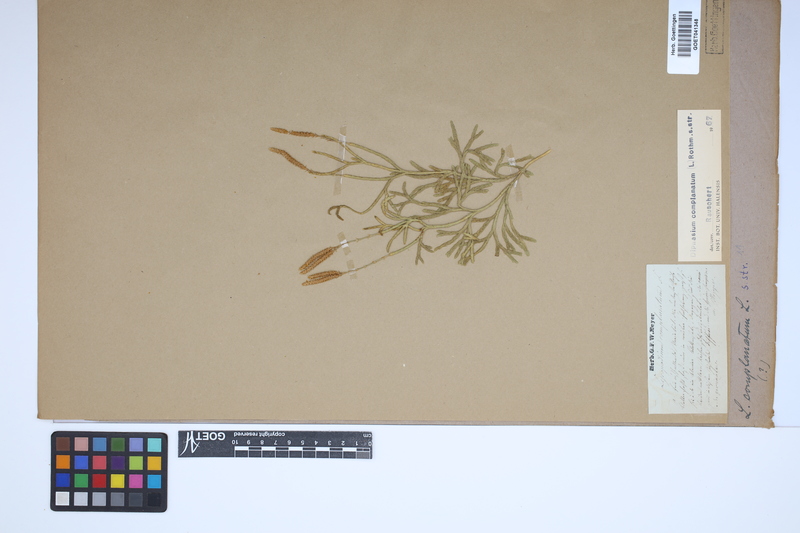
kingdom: Plantae
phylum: Tracheophyta
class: Lycopodiopsida
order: Lycopodiales
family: Lycopodiaceae
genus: Diphasiastrum
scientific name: Diphasiastrum complanatum
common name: Northern running-pine
